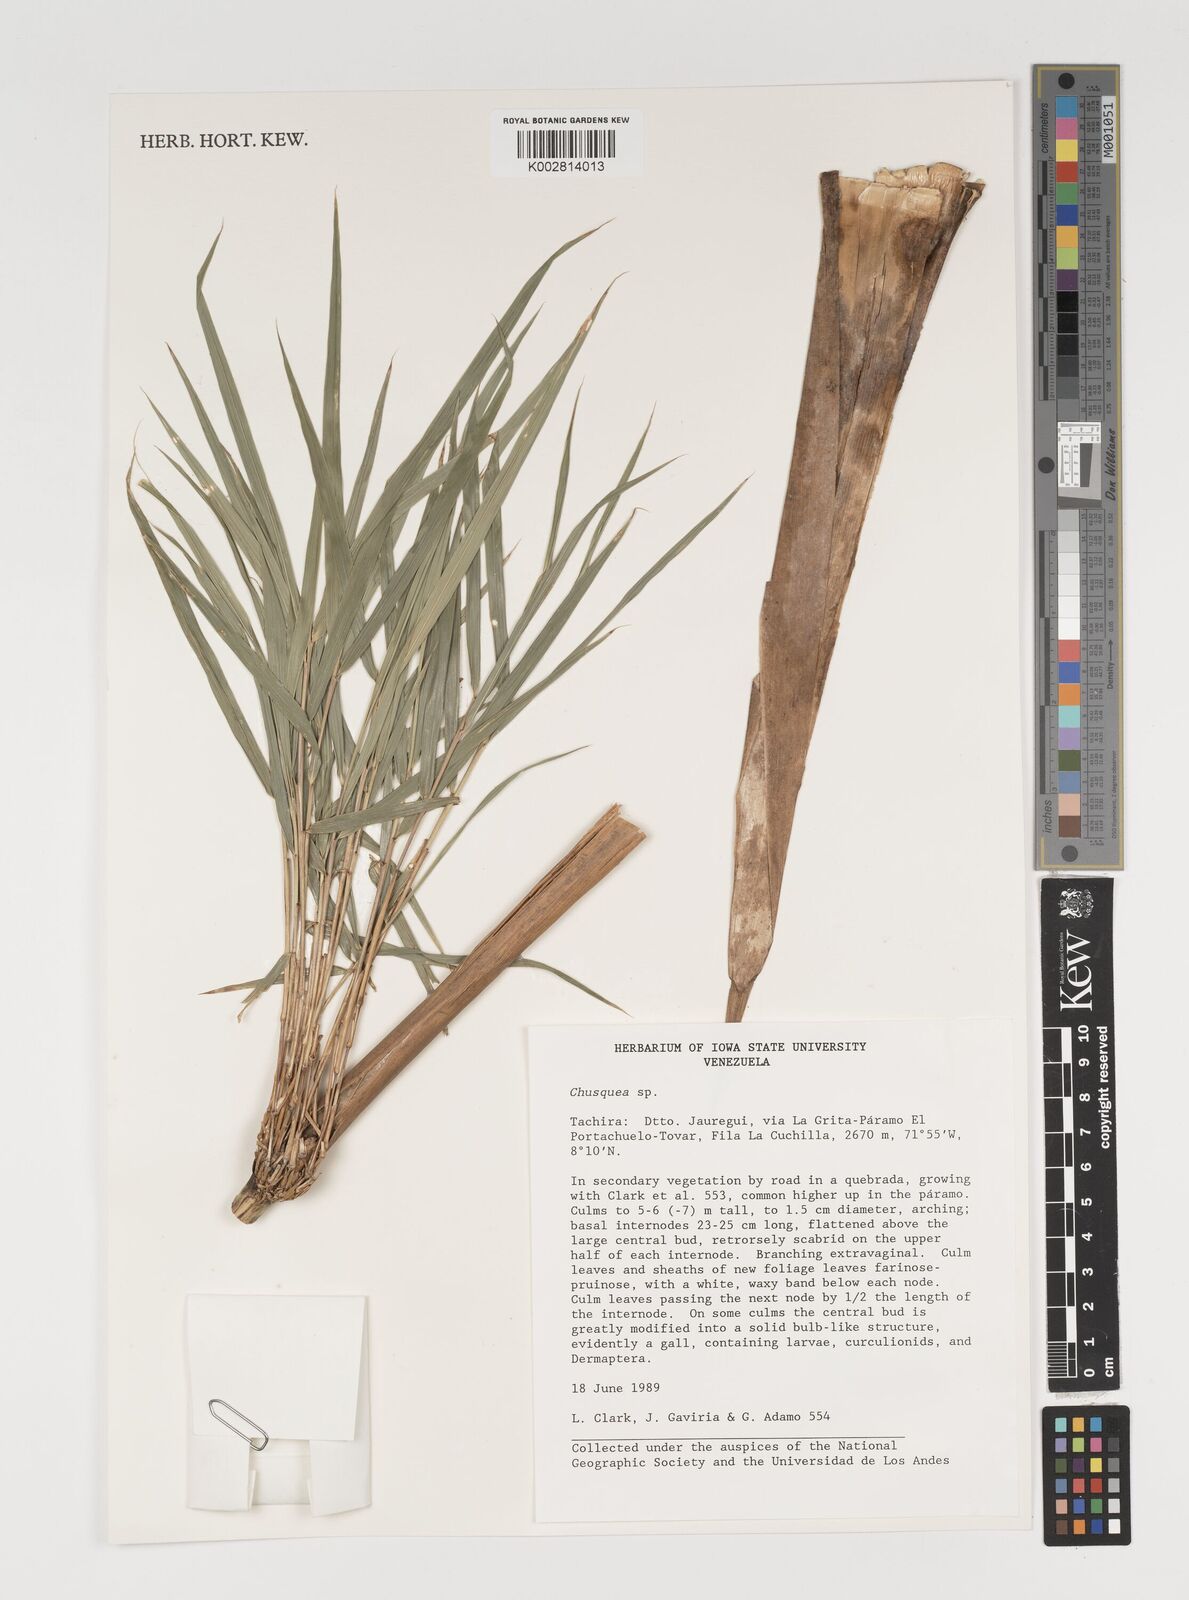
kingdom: Plantae
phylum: Tracheophyta
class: Liliopsida
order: Poales
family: Poaceae
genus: Chusquea
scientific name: Chusquea
